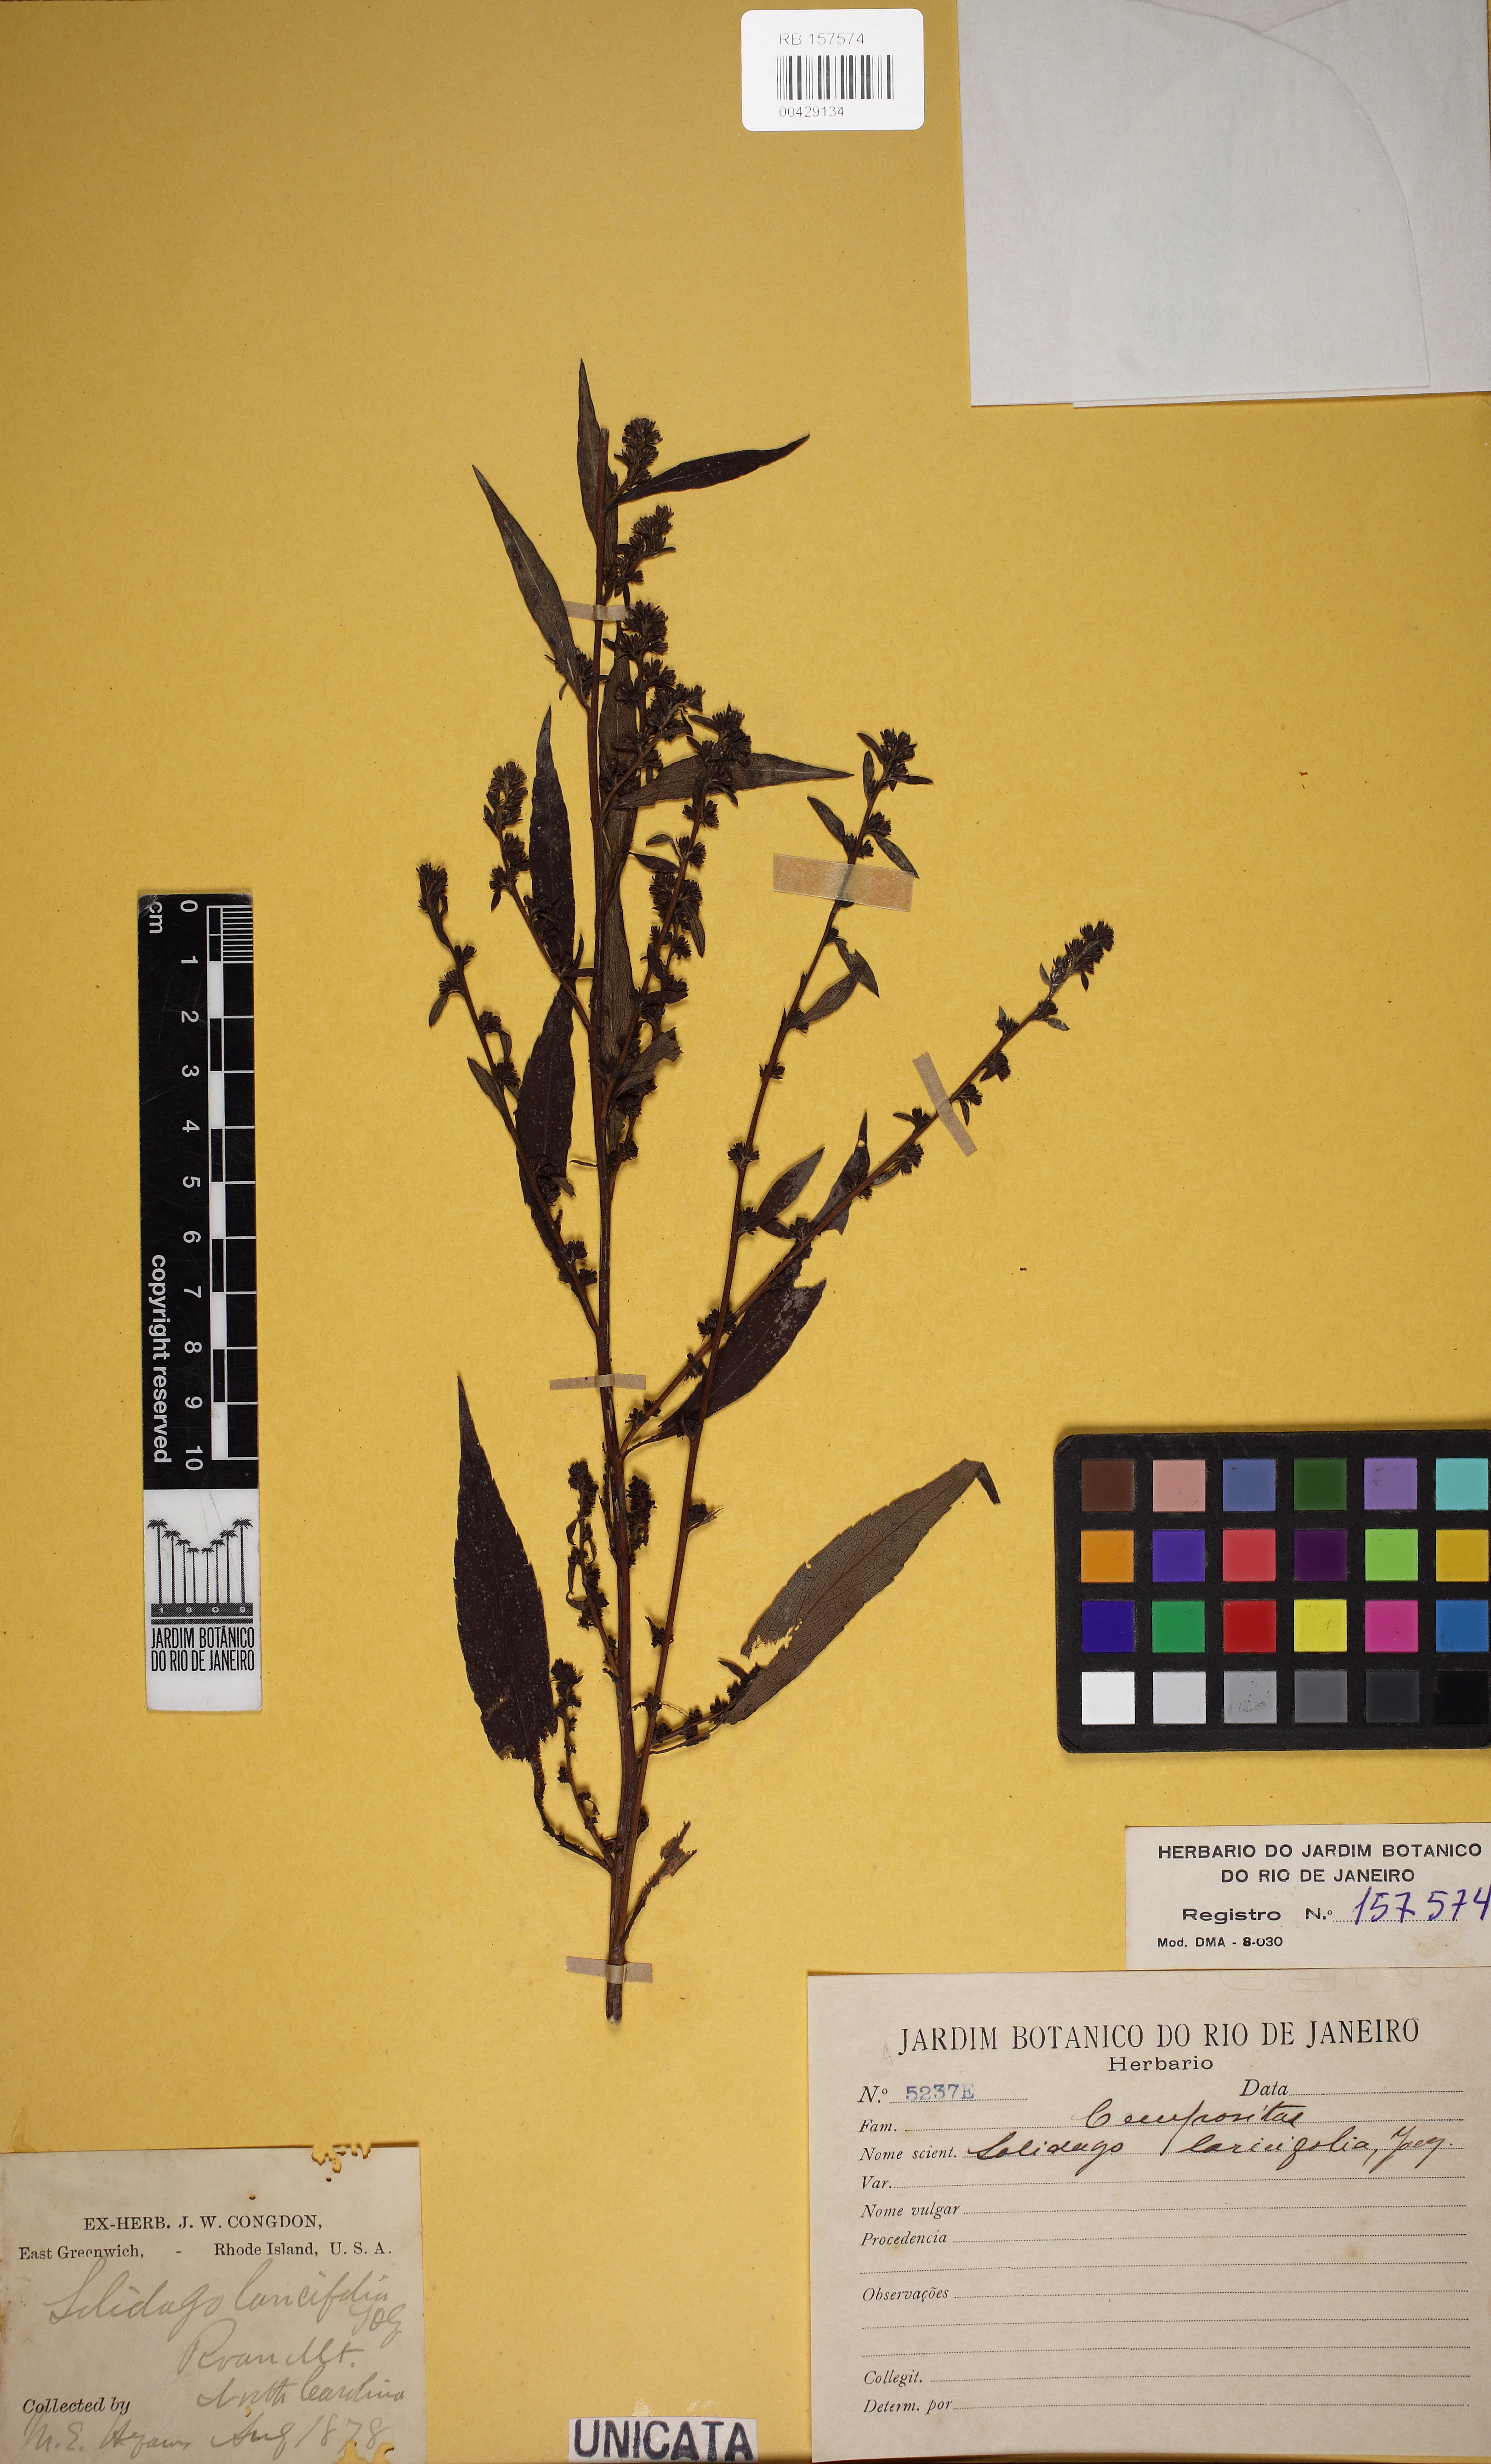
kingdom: Plantae
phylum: Tracheophyta
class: Magnoliopsida
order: Asterales
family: Asteraceae
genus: Solidago
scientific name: Solidago lancifolia
